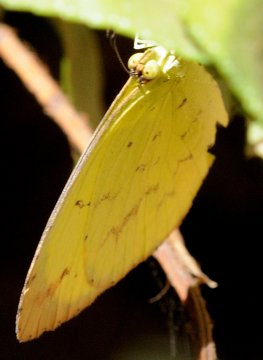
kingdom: Animalia
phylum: Arthropoda
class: Insecta
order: Lepidoptera
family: Pieridae
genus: Eurema
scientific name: Eurema desjardinsii
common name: Angled Grass Yellow
